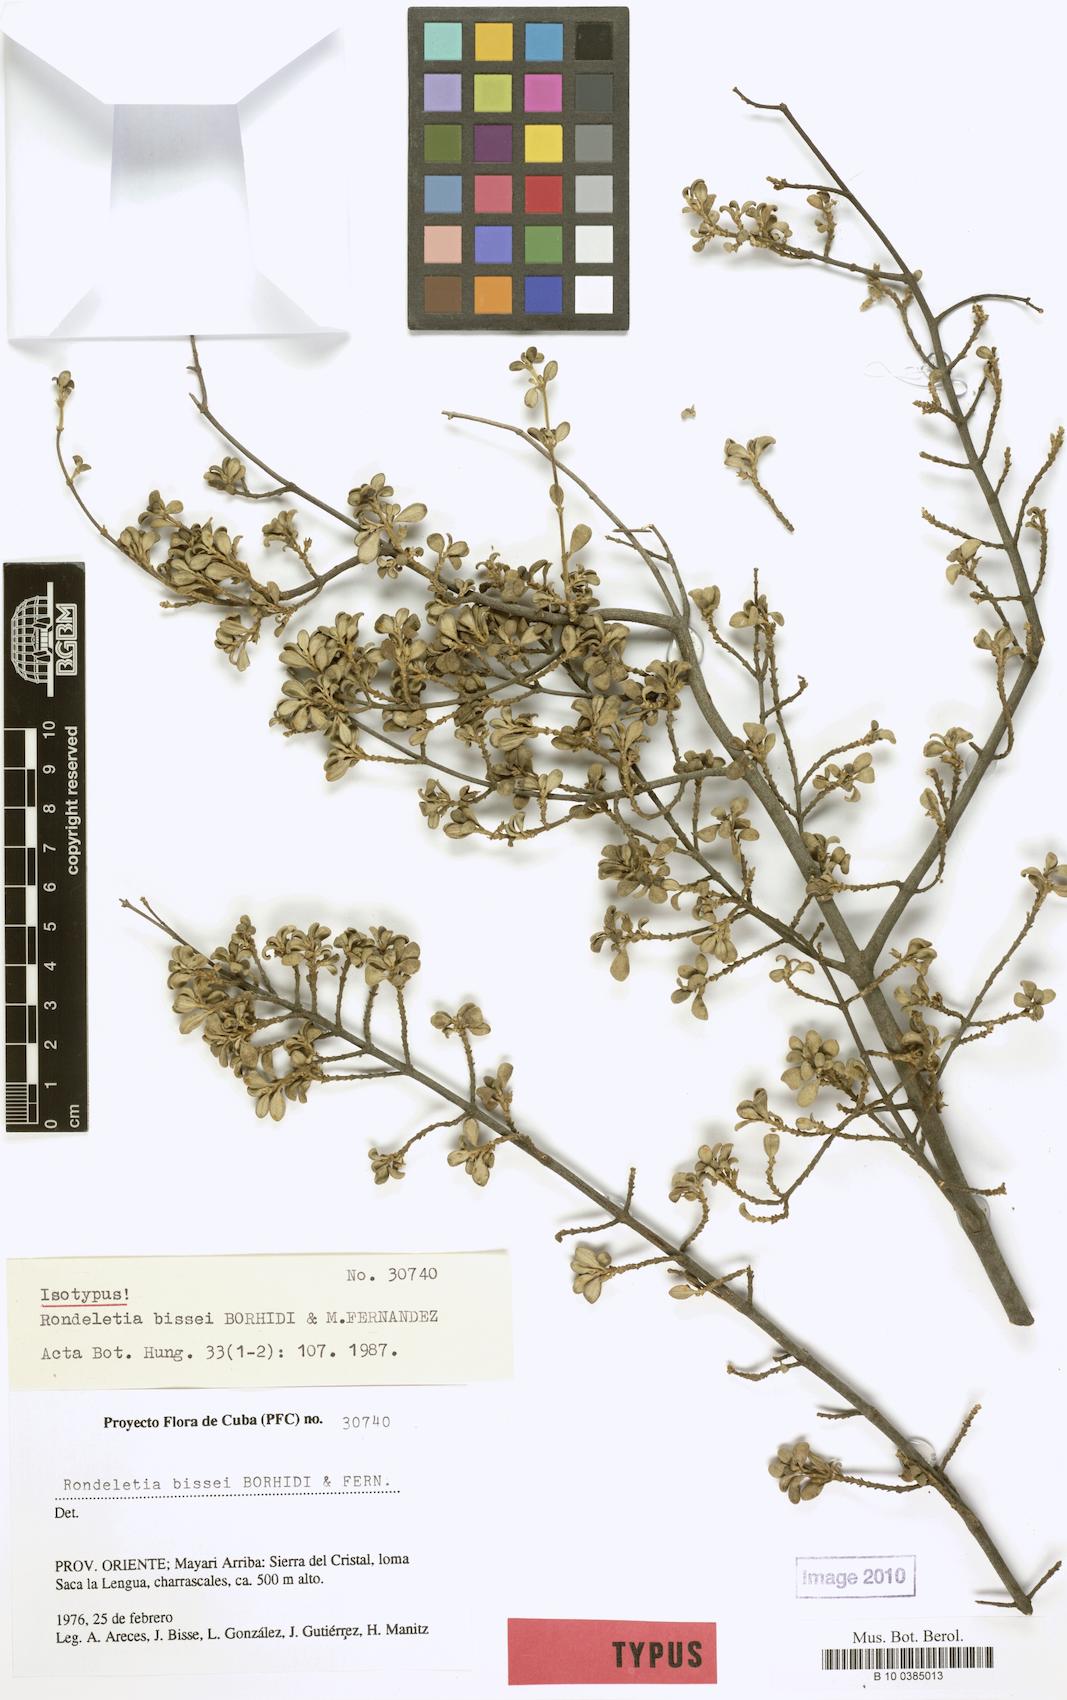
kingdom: Plantae
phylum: Tracheophyta
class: Magnoliopsida
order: Gentianales
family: Rubiaceae
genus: Rondeletia
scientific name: Rondeletia bissei
